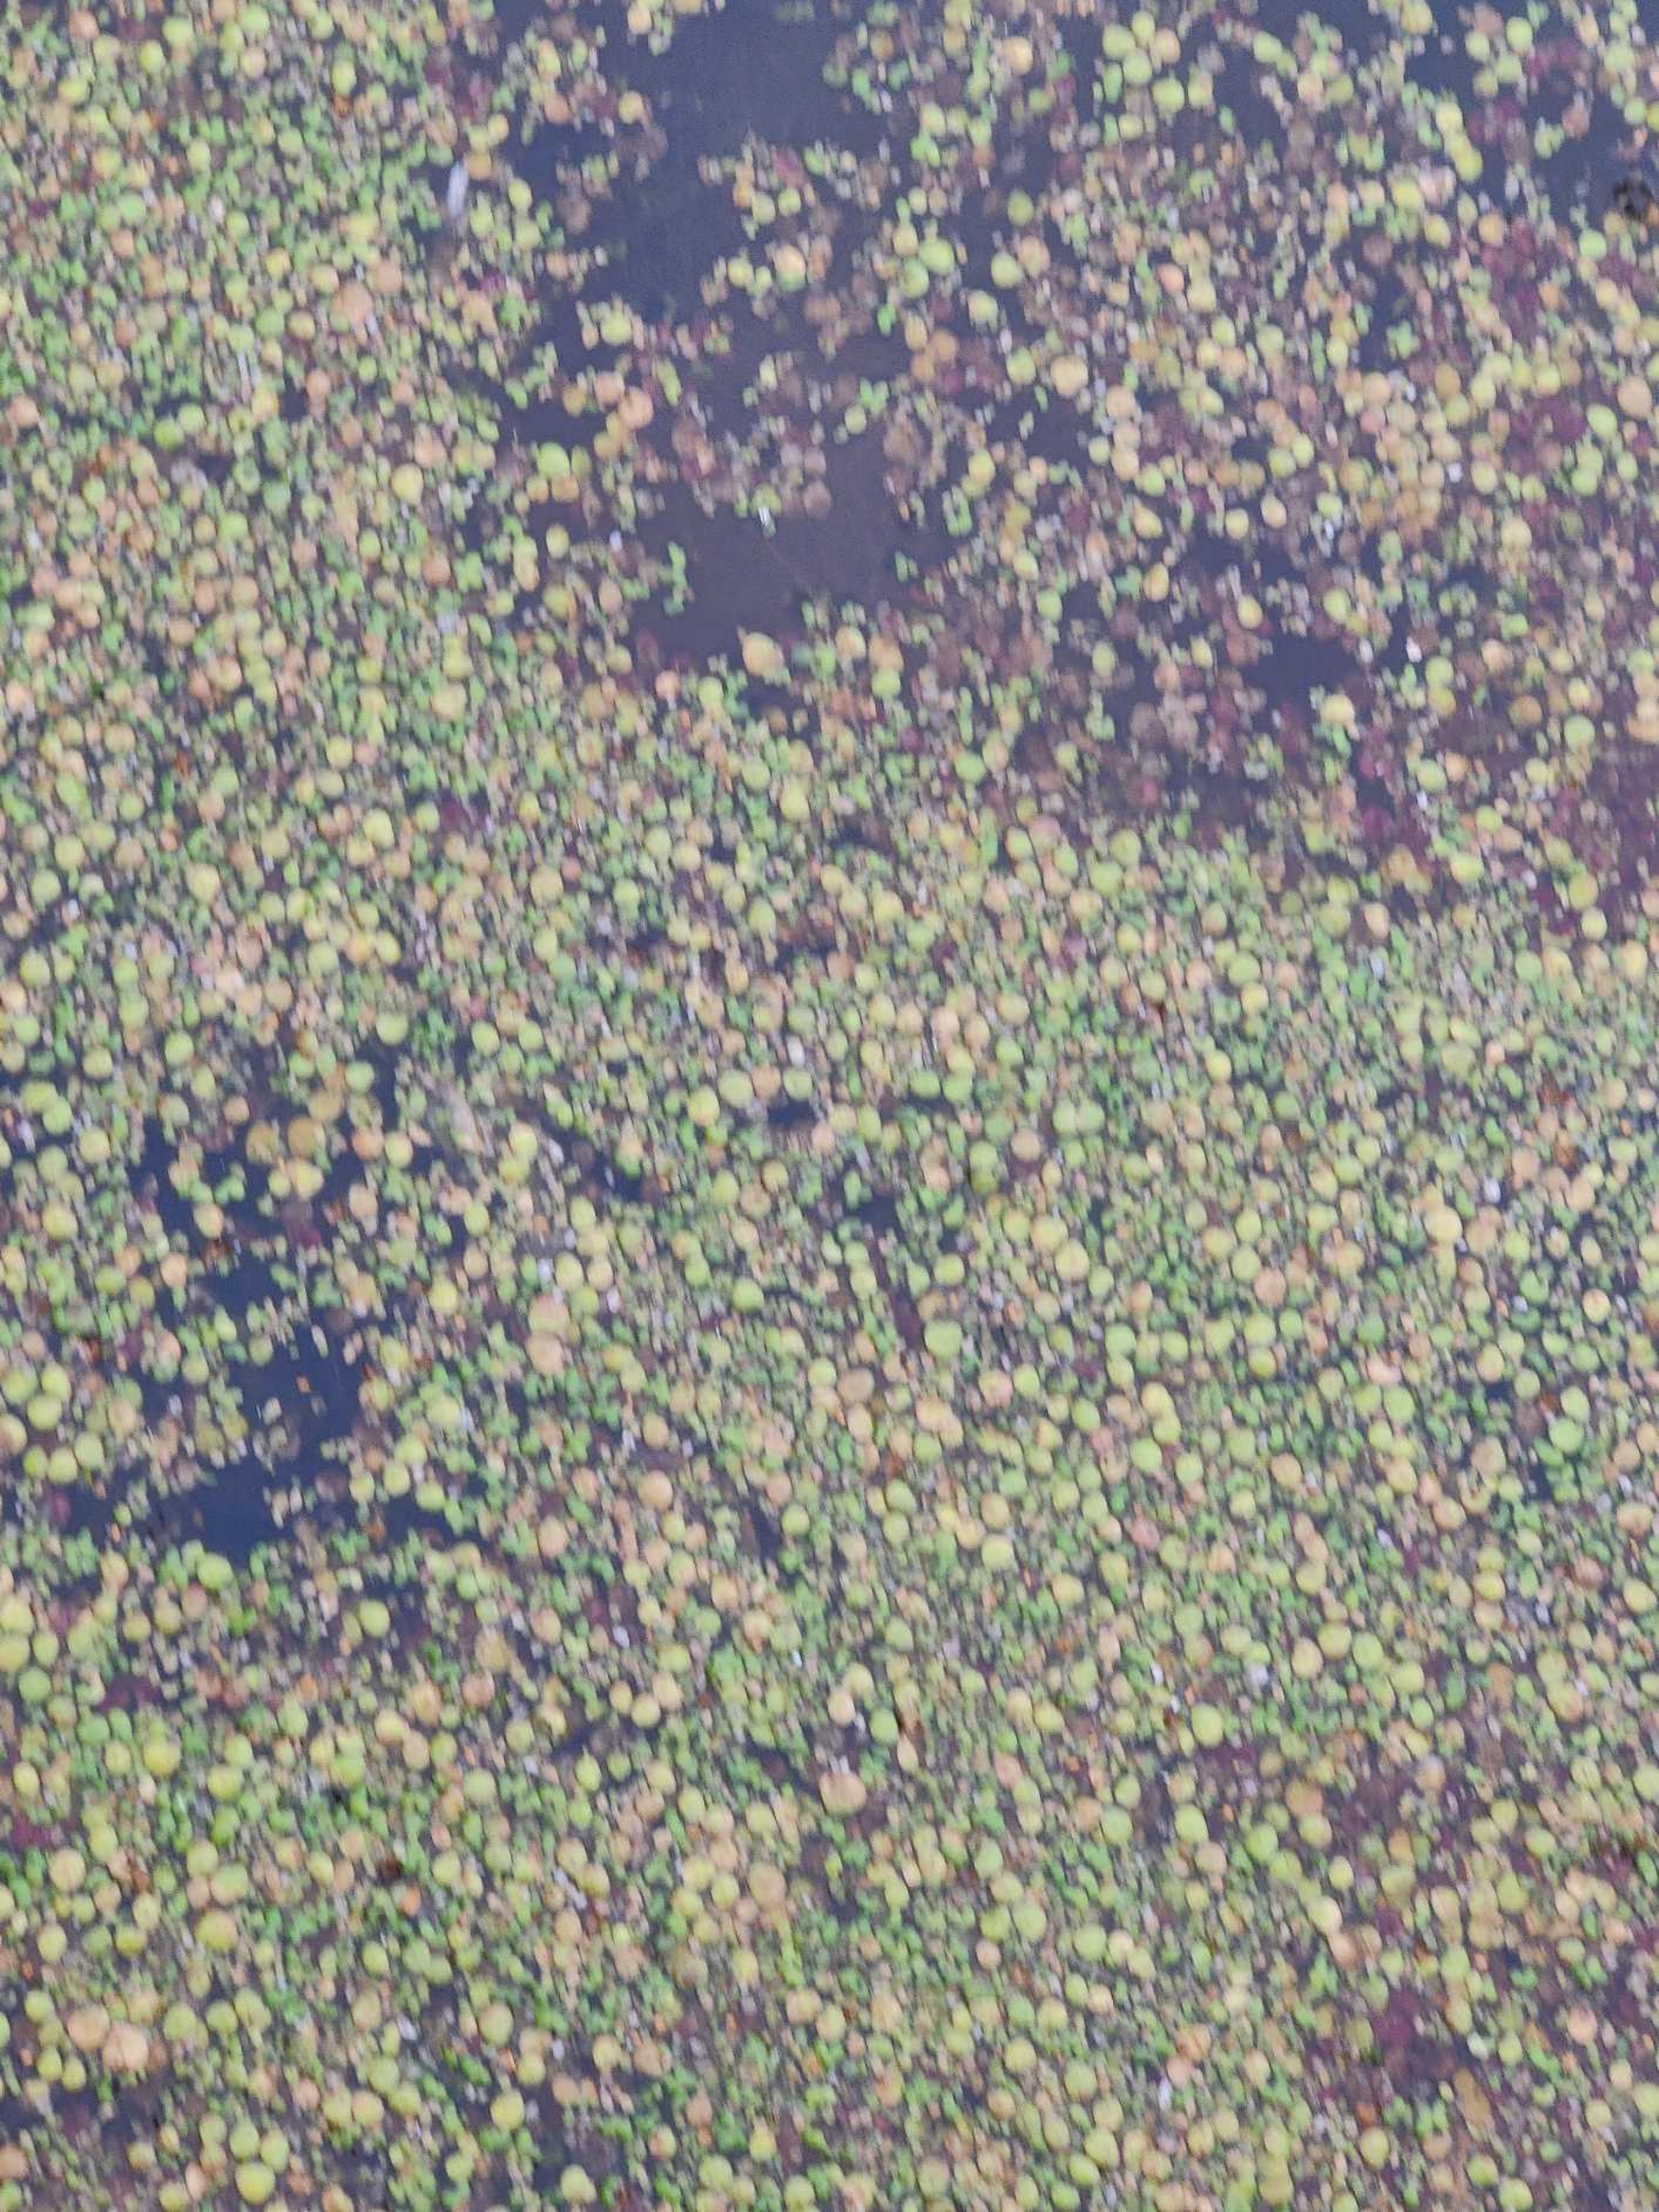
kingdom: Plantae
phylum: Tracheophyta
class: Liliopsida
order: Alismatales
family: Araceae
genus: Spirodela
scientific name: Spirodela polyrhiza
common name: Stor andemad
